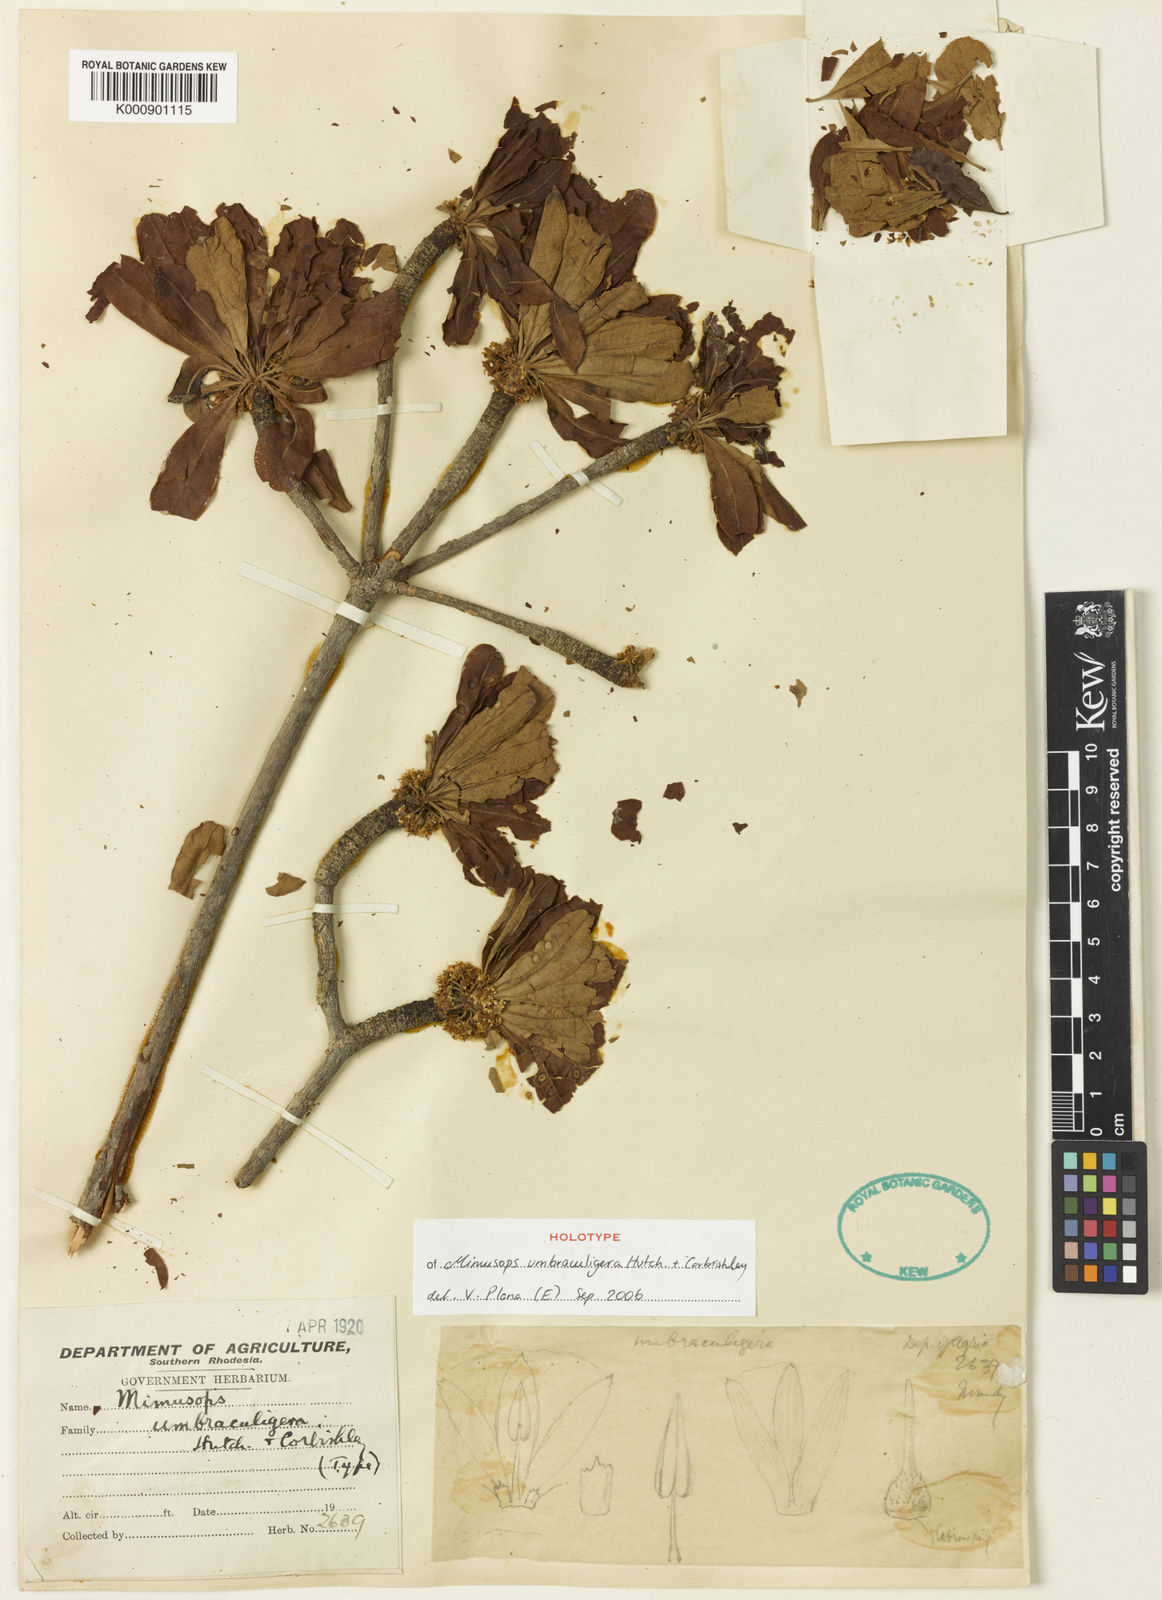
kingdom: Plantae
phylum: Tracheophyta
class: Magnoliopsida
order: Ericales
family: Sapotaceae
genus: Manilkara
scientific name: Manilkara mochisia
